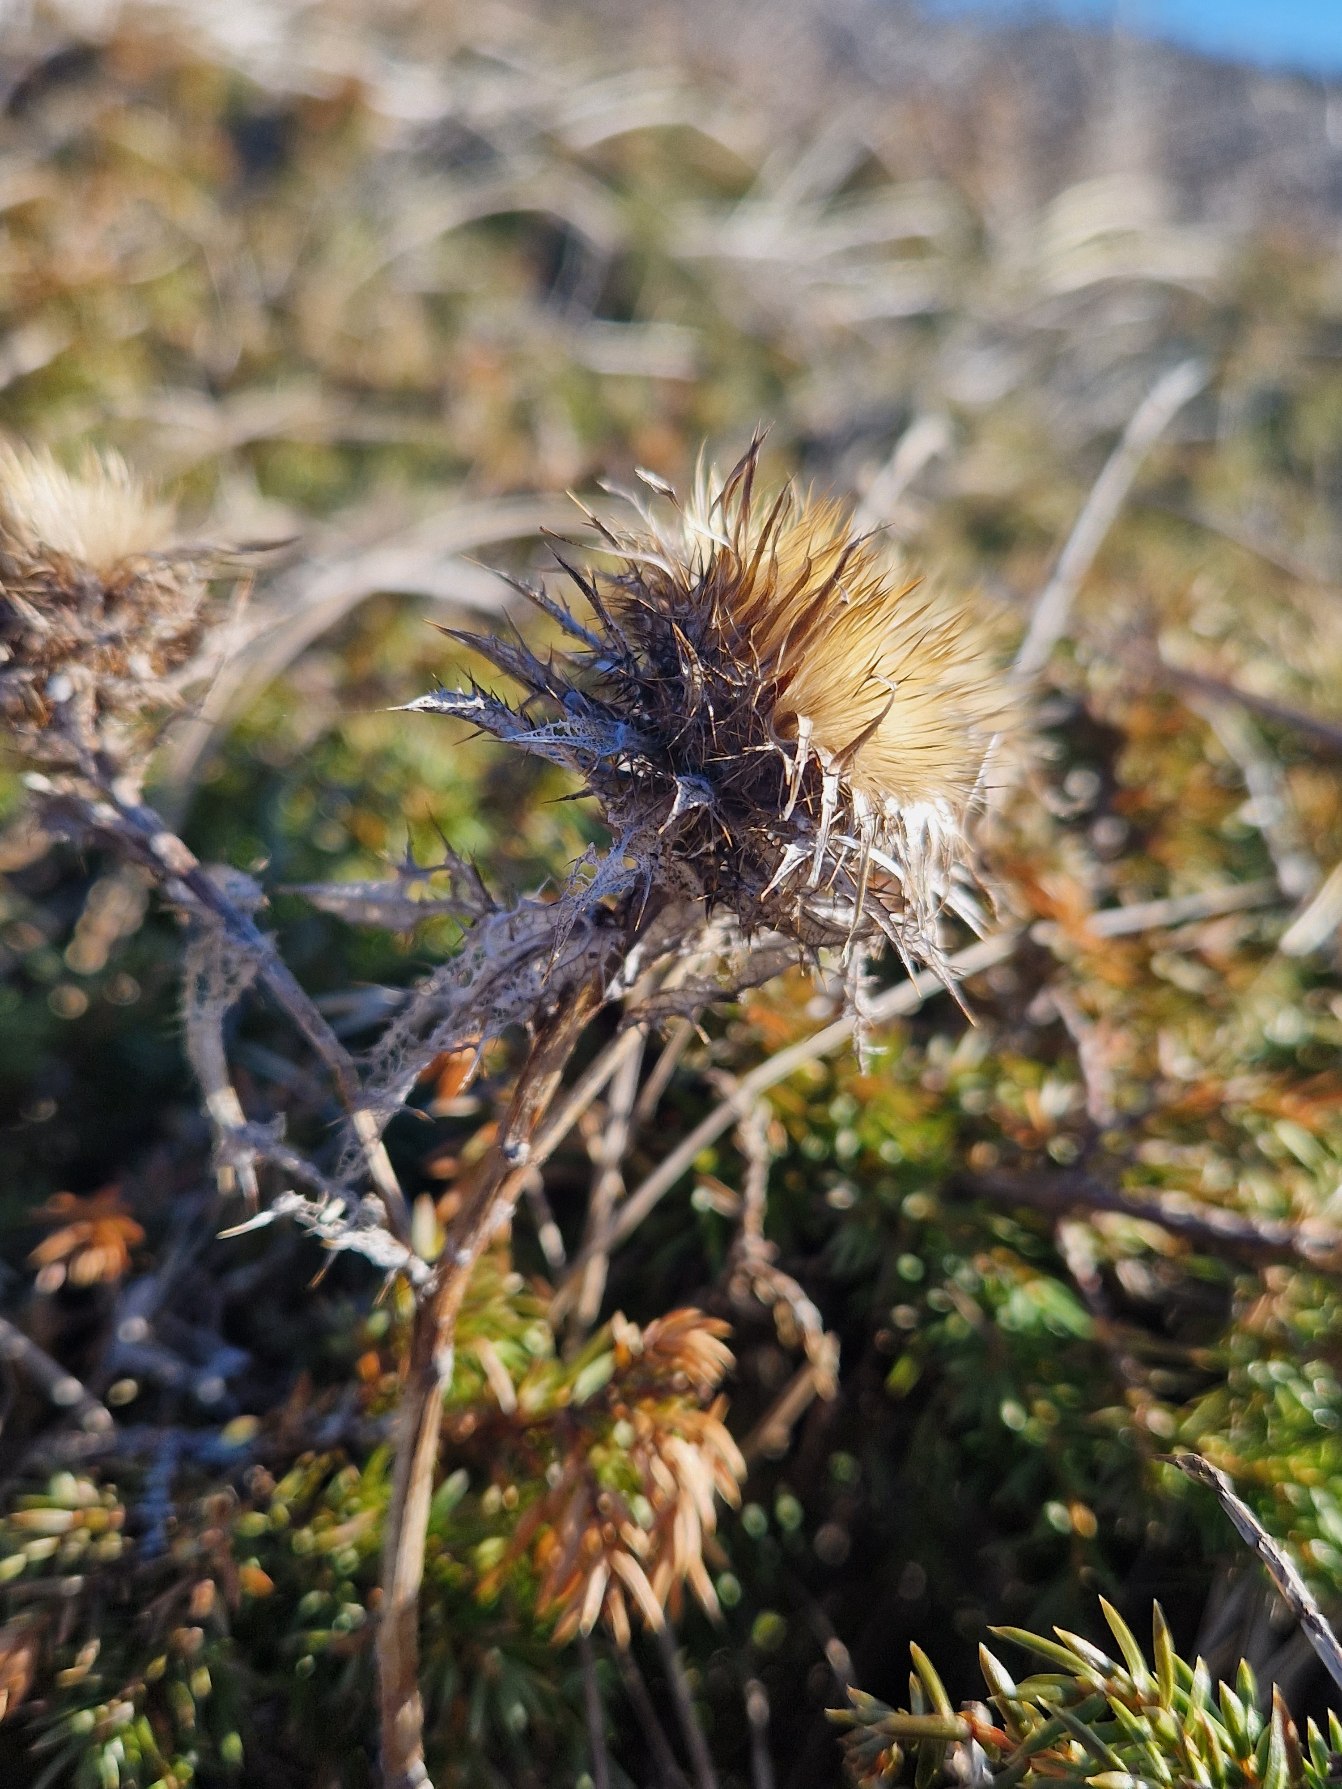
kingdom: Plantae
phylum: Tracheophyta
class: Magnoliopsida
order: Asterales
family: Asteraceae
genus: Carlina
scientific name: Carlina vulgaris
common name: Bakketidsel
